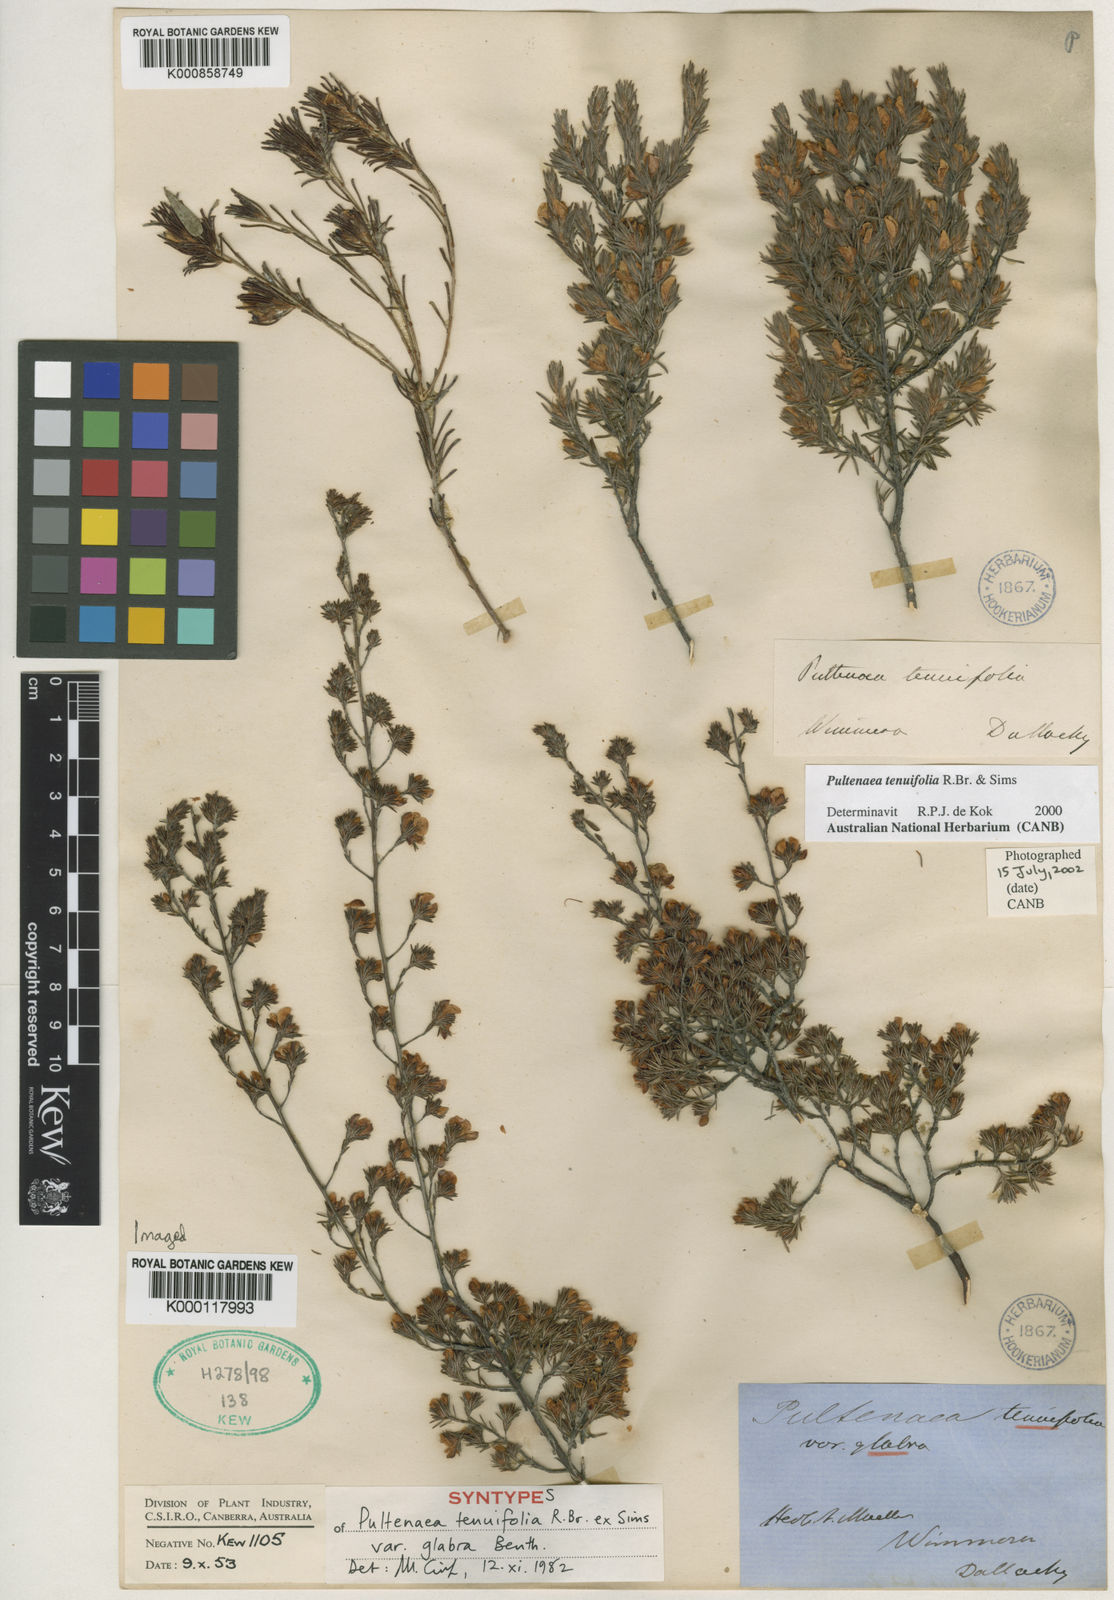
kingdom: Plantae
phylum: Tracheophyta
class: Magnoliopsida
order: Fabales
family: Fabaceae
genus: Pultenaea
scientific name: Pultenaea
